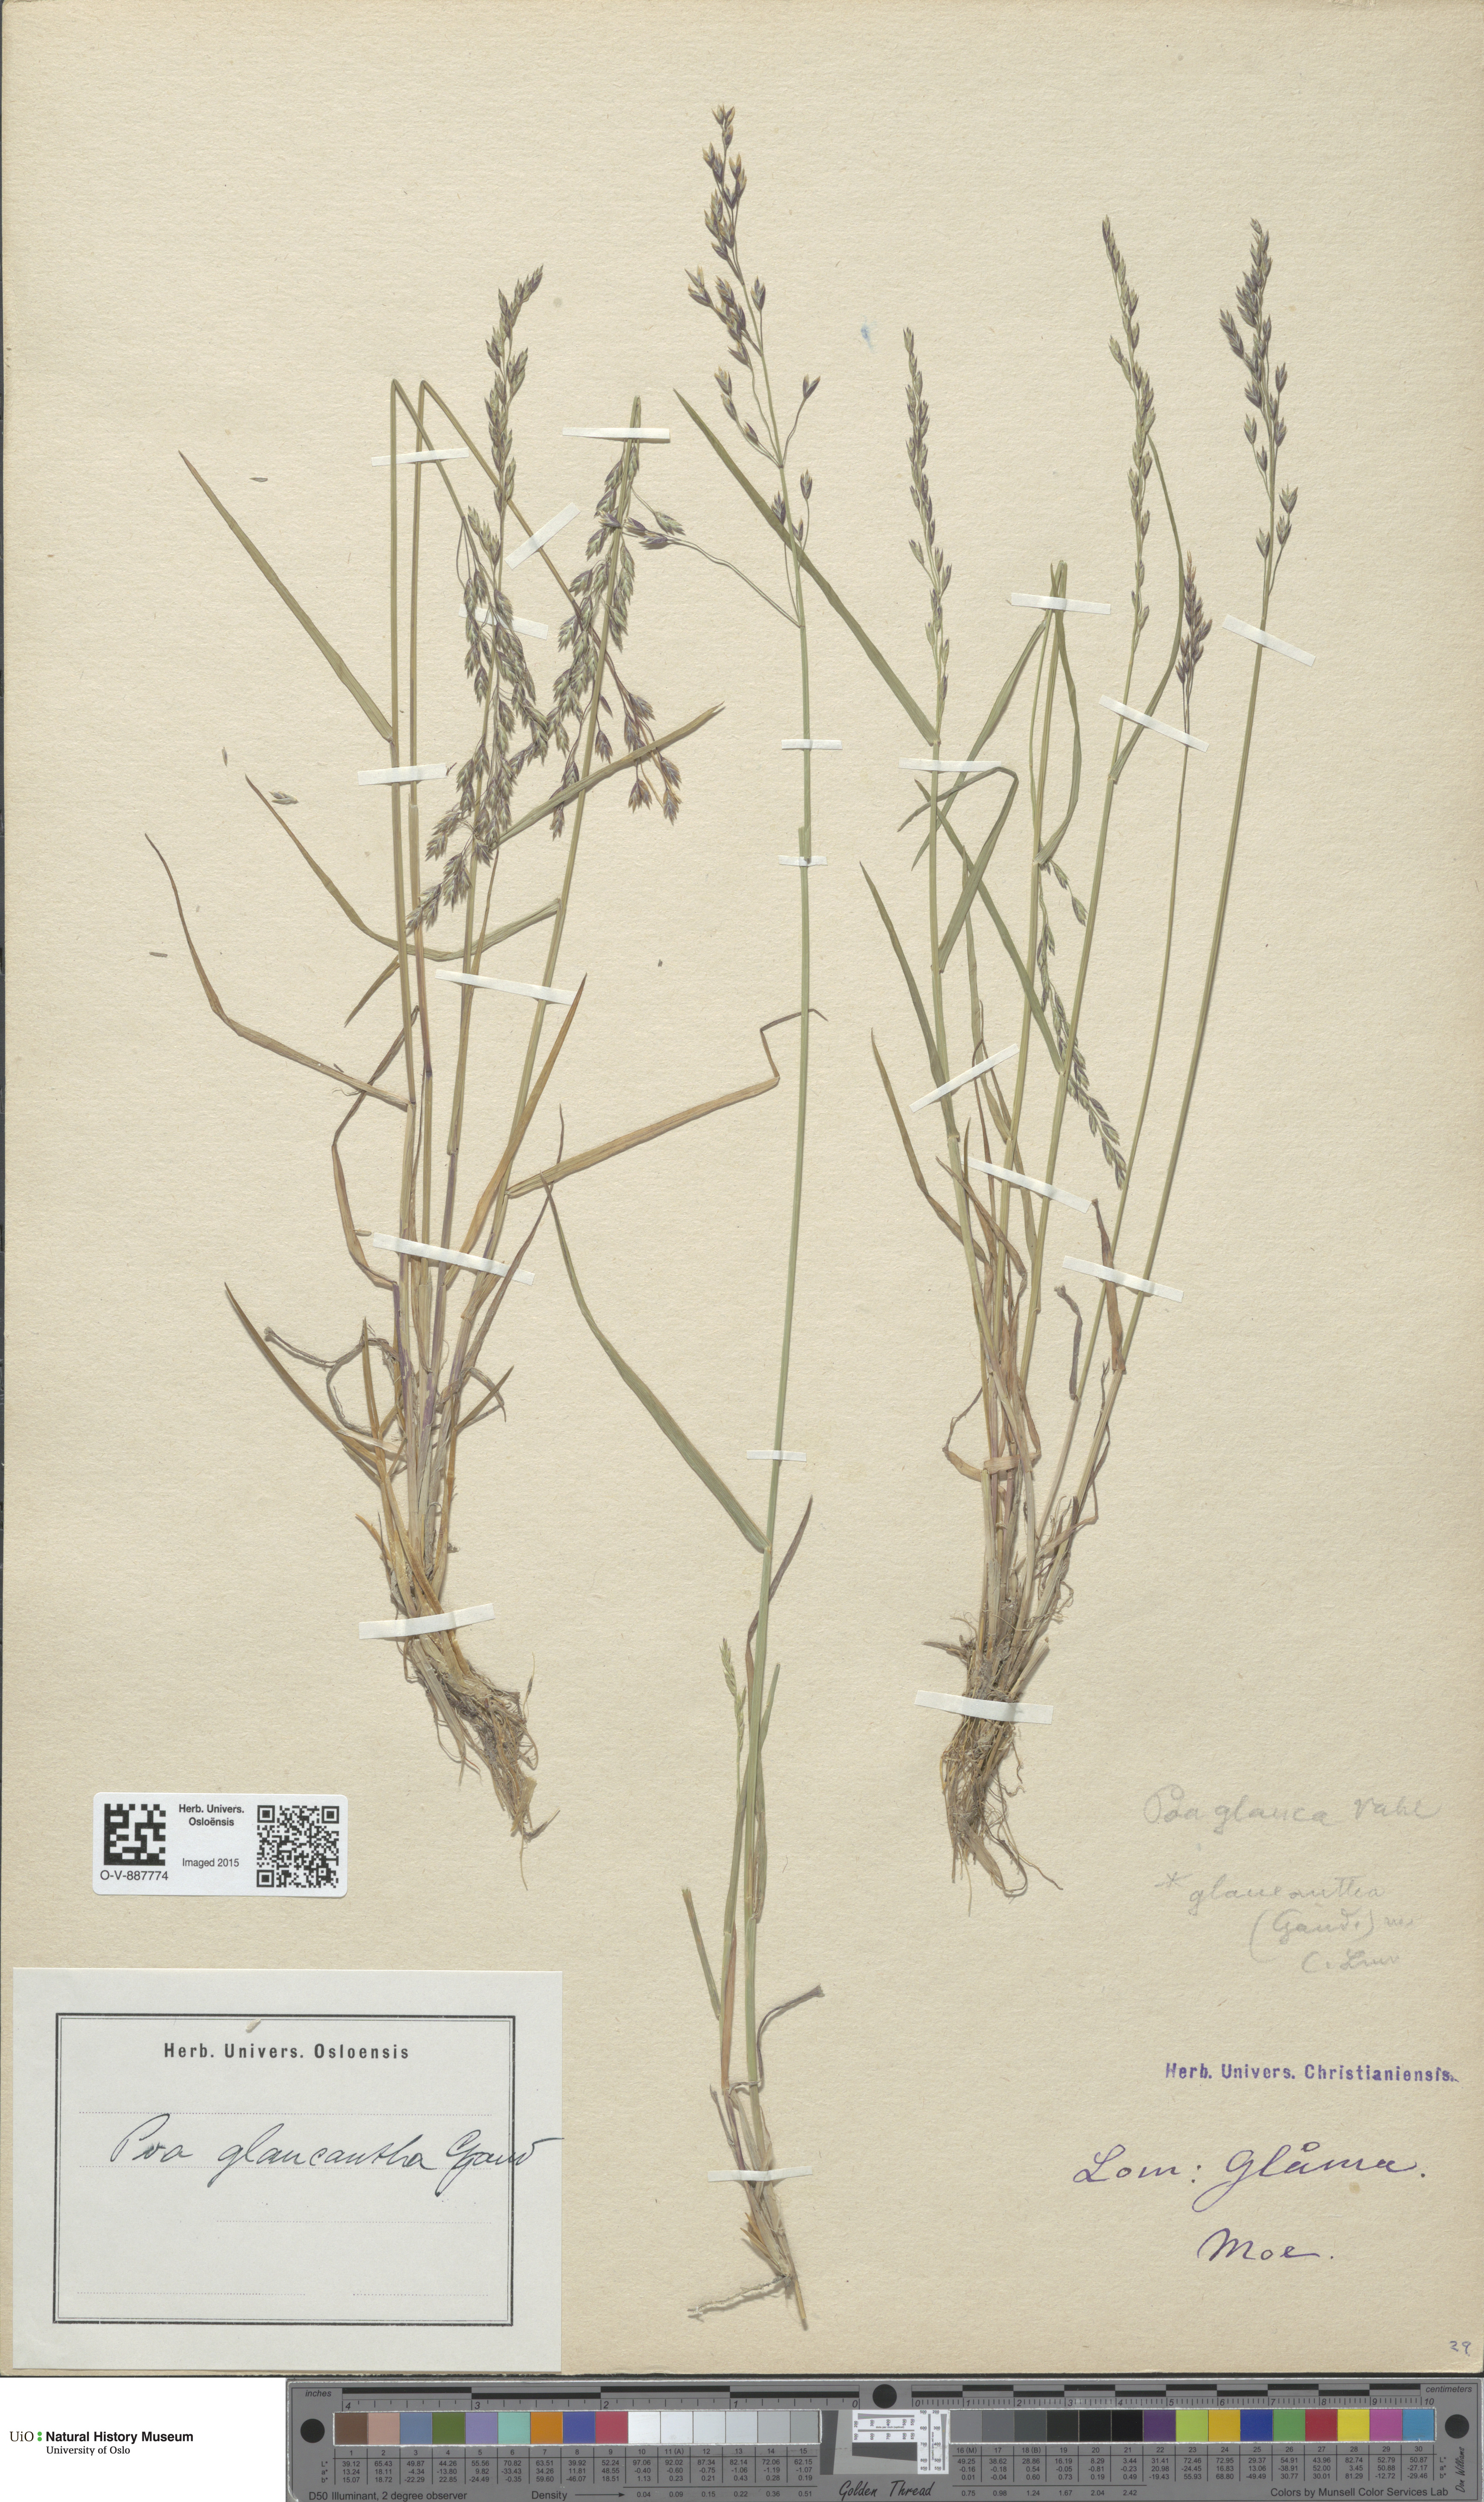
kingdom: Plantae
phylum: Tracheophyta
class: Liliopsida
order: Poales
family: Poaceae
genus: Poa
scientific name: Poa nemoralis
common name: Wood bluegrass
